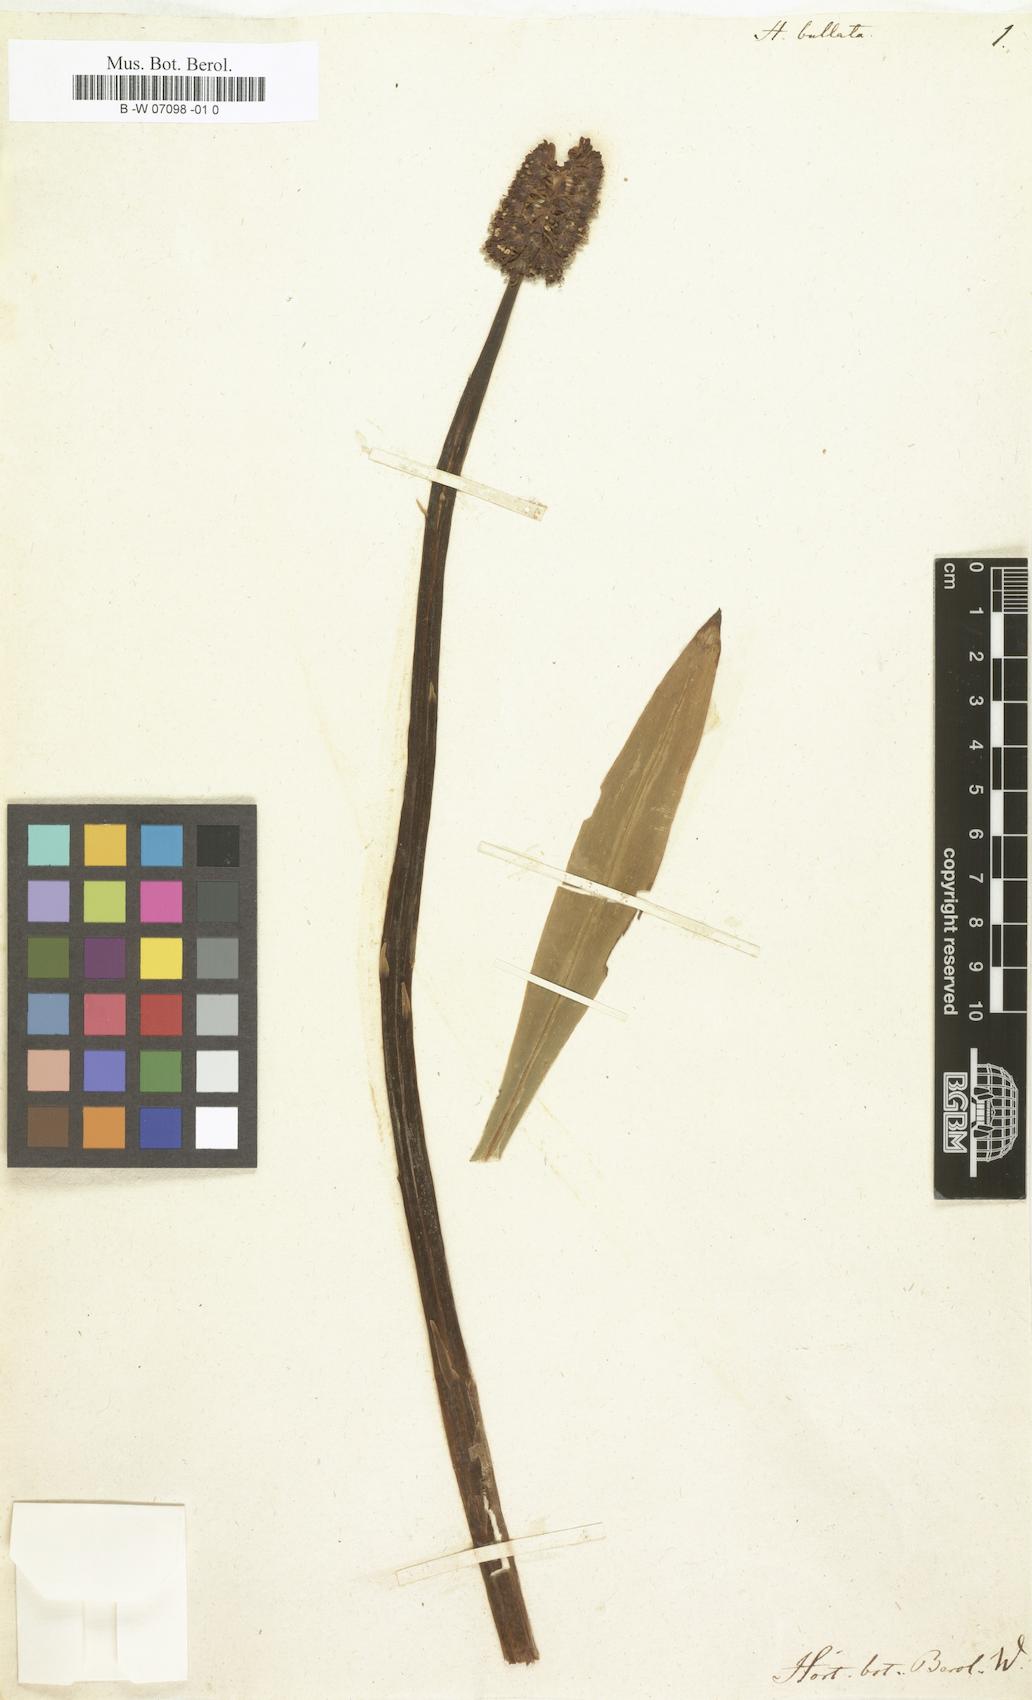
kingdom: Plantae
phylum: Tracheophyta
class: Liliopsida
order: Liliales
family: Melanthiaceae
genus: Helonias
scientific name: Helonias bullata
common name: Swamp-pink
